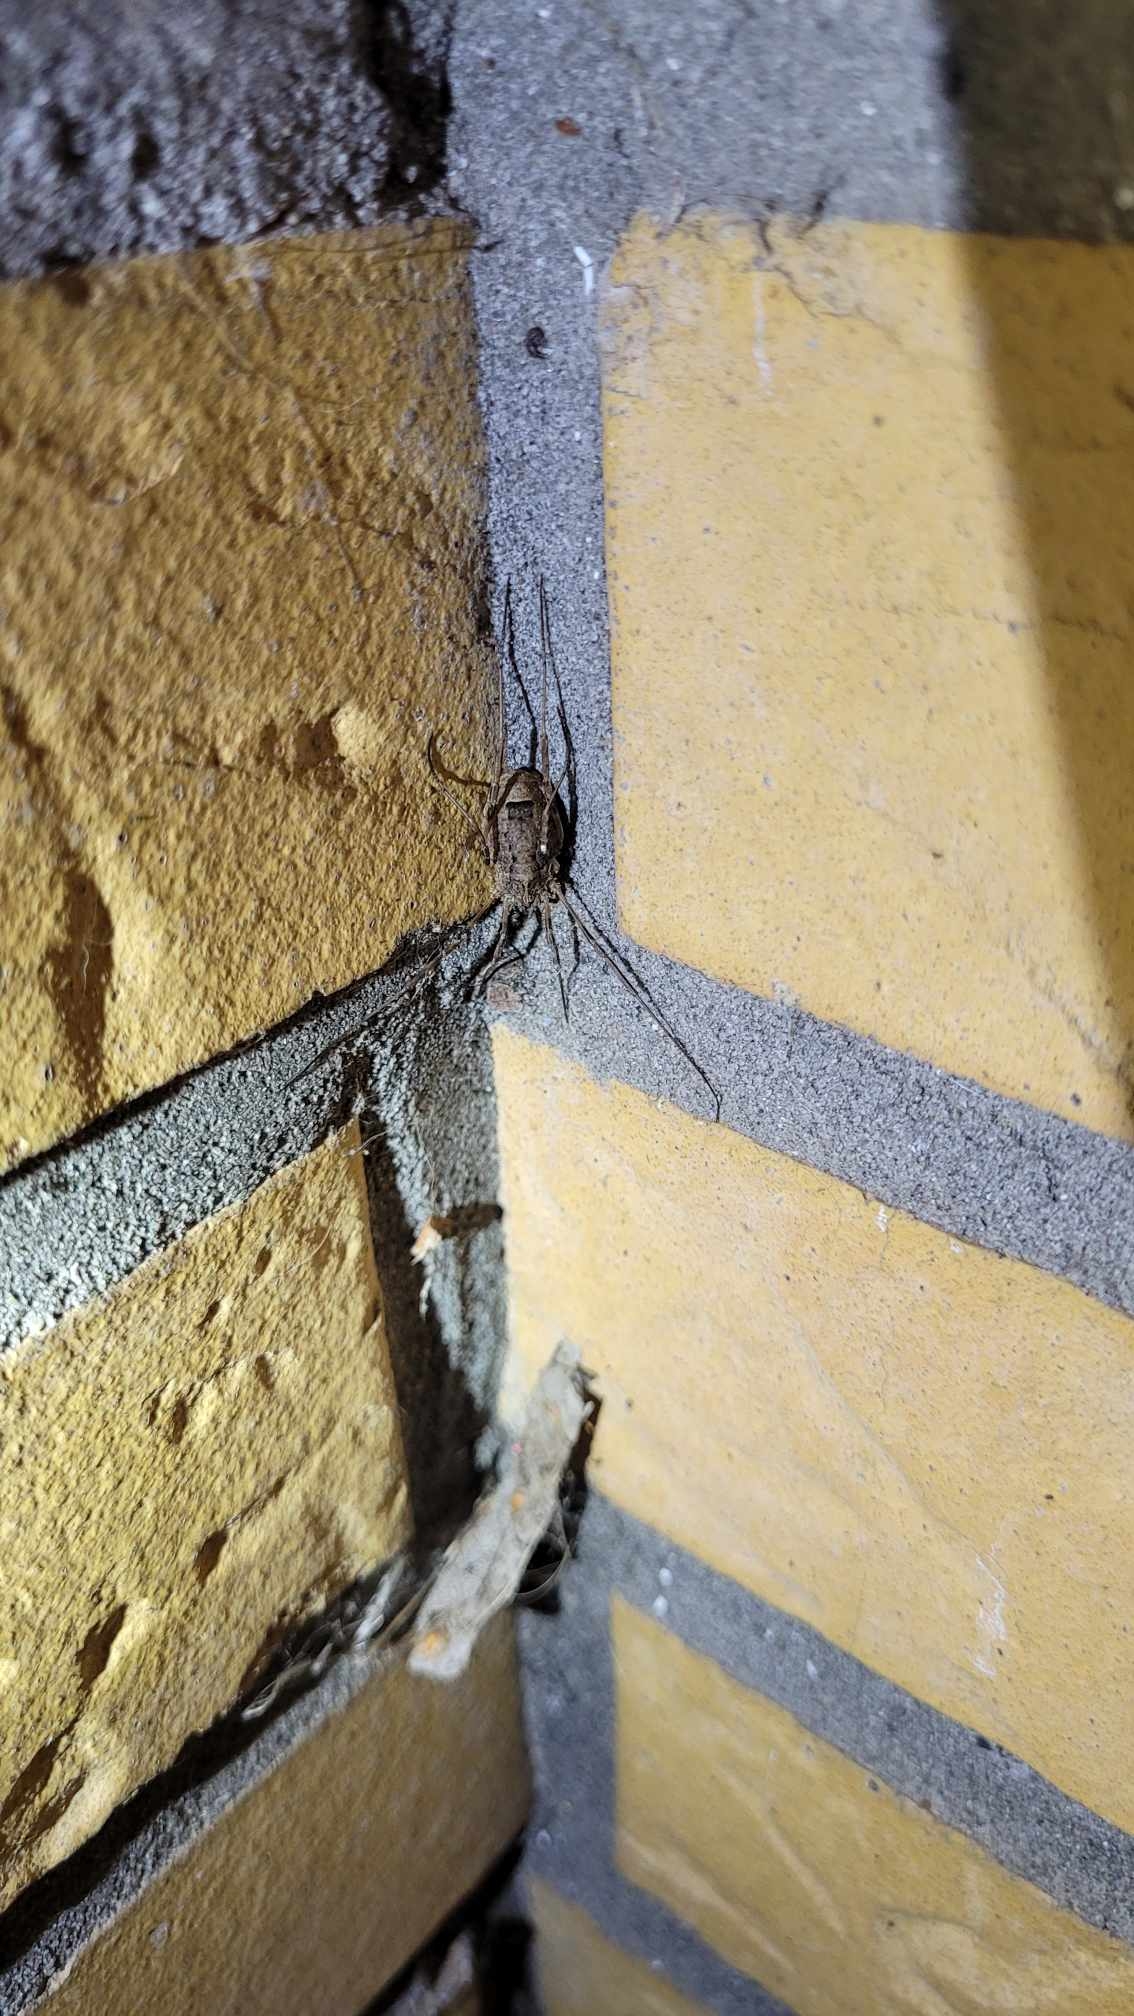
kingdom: Animalia
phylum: Arthropoda
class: Arachnida
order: Opiliones
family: Phalangiidae
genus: Odiellus
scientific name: Odiellus spinosus
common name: Kæmpemejer
